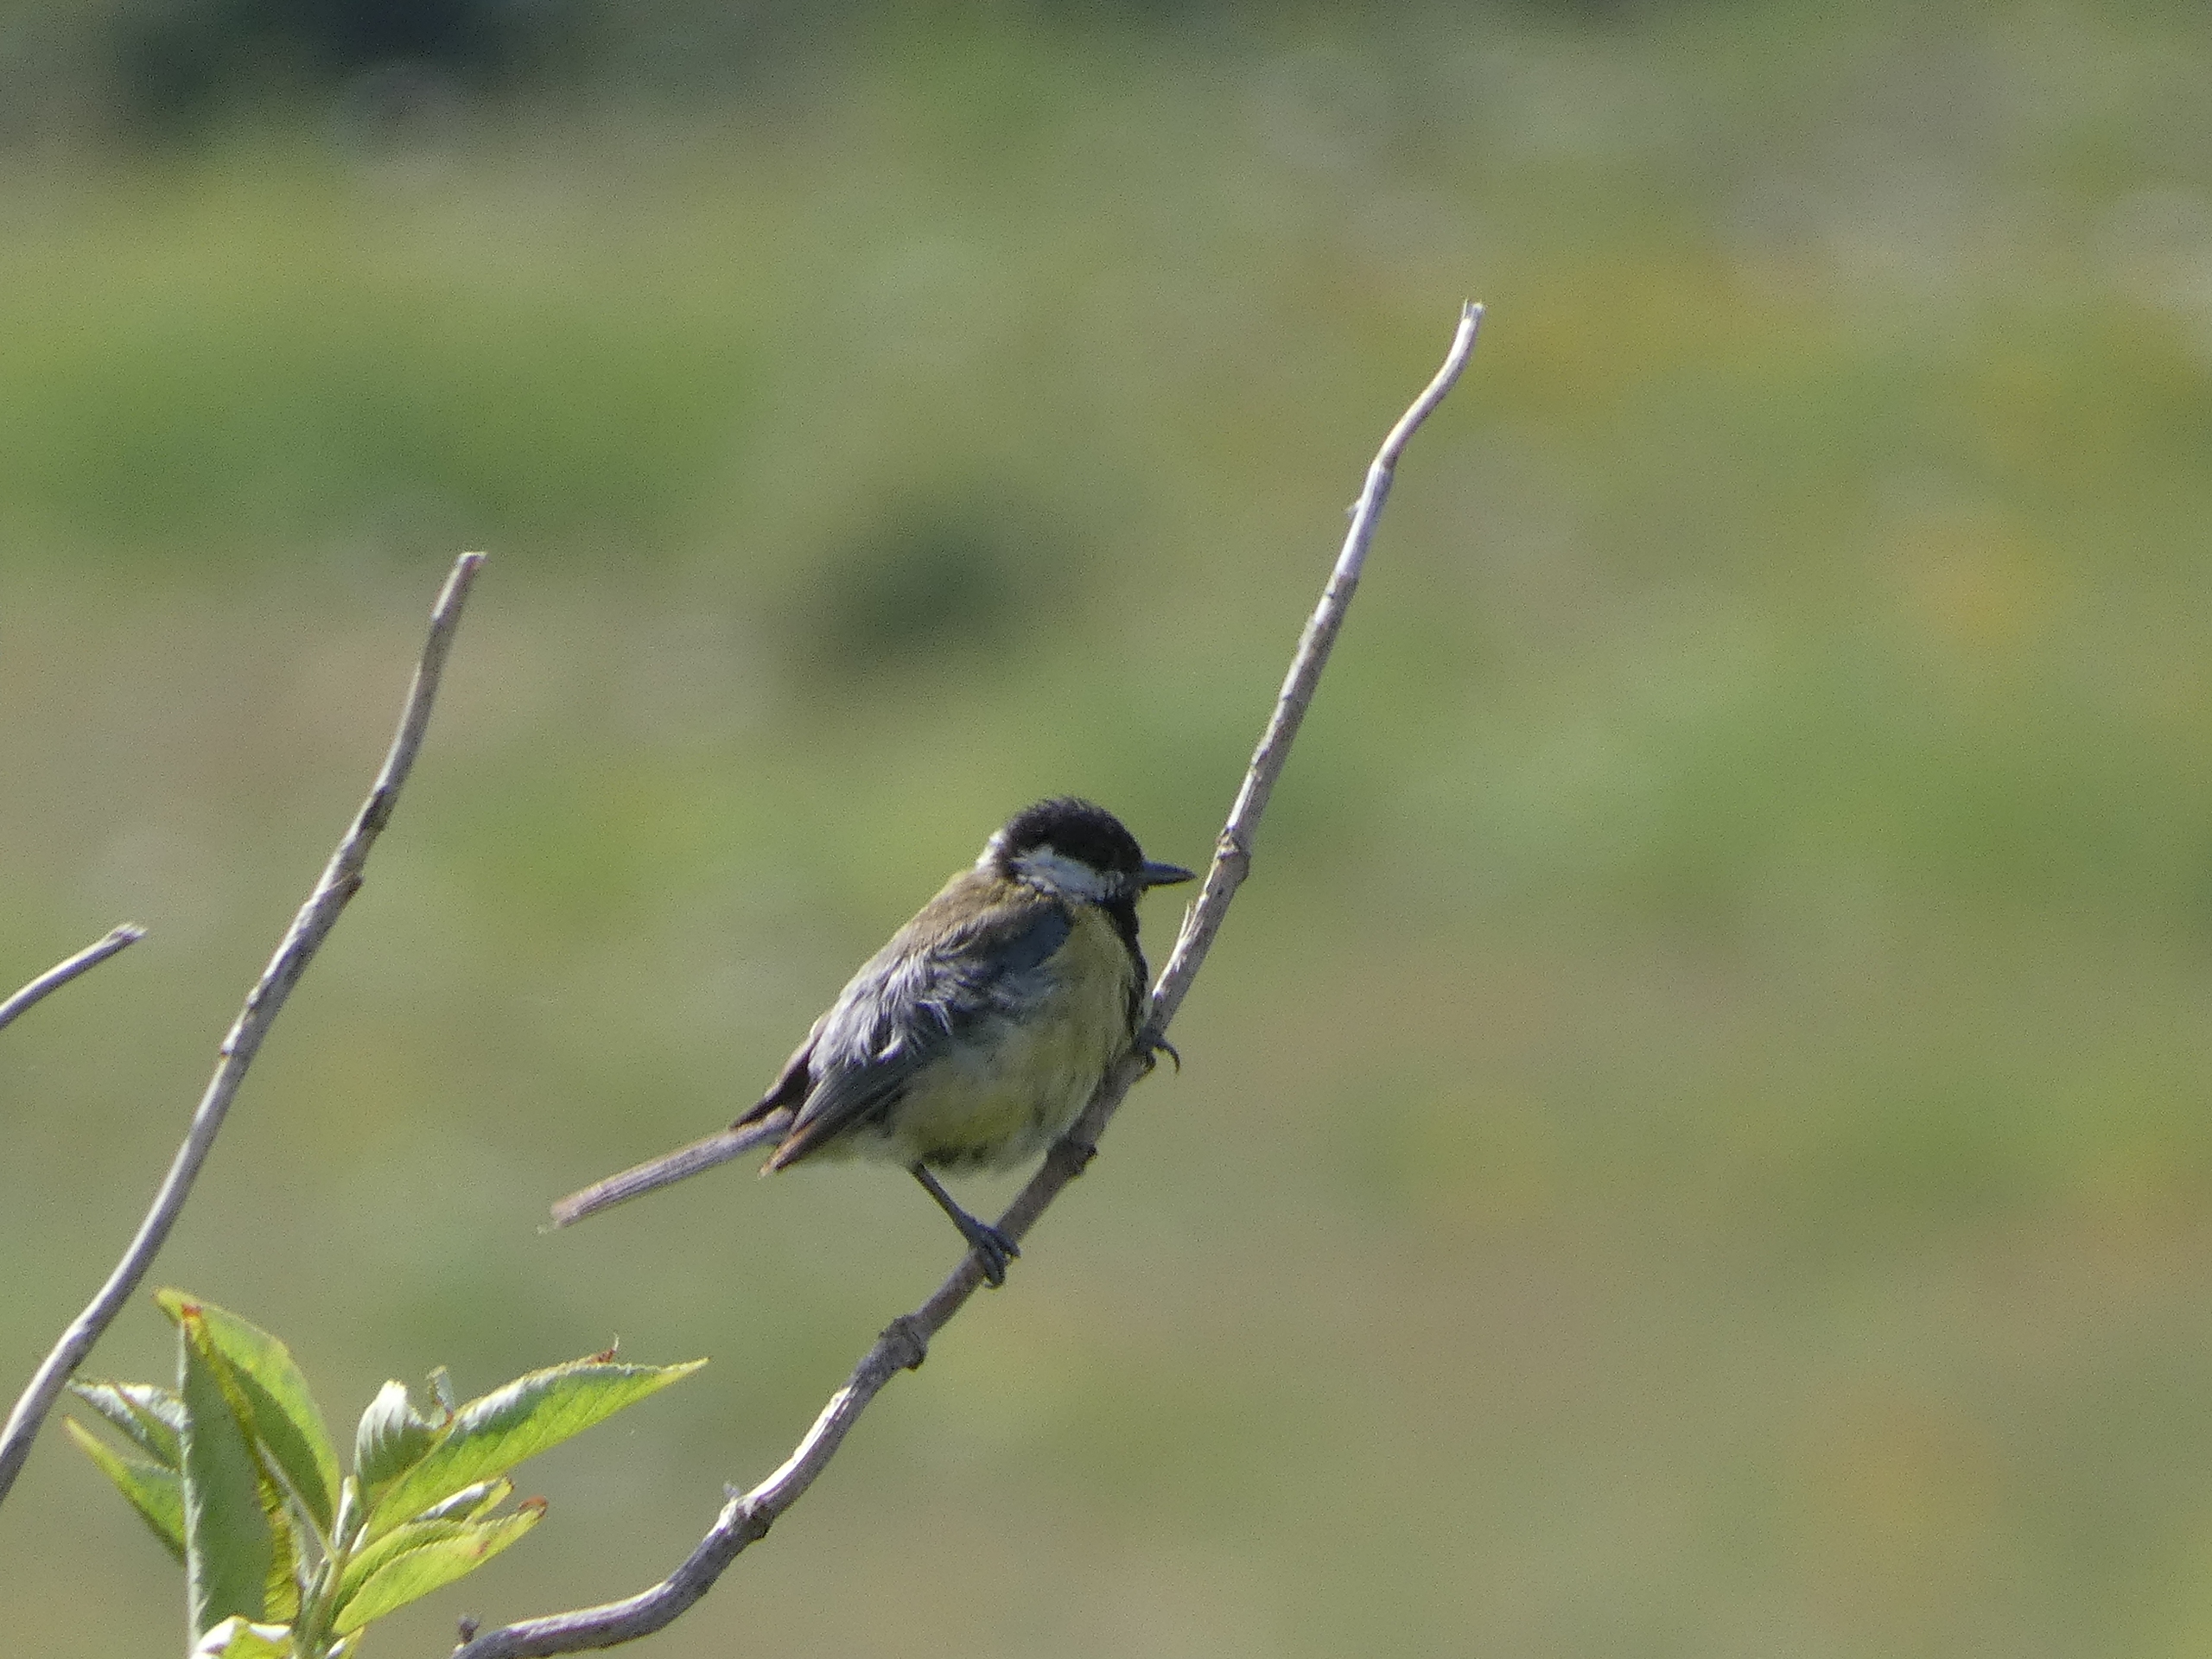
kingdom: Animalia
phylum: Chordata
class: Aves
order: Passeriformes
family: Paridae
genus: Parus
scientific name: Parus major
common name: Musvit
